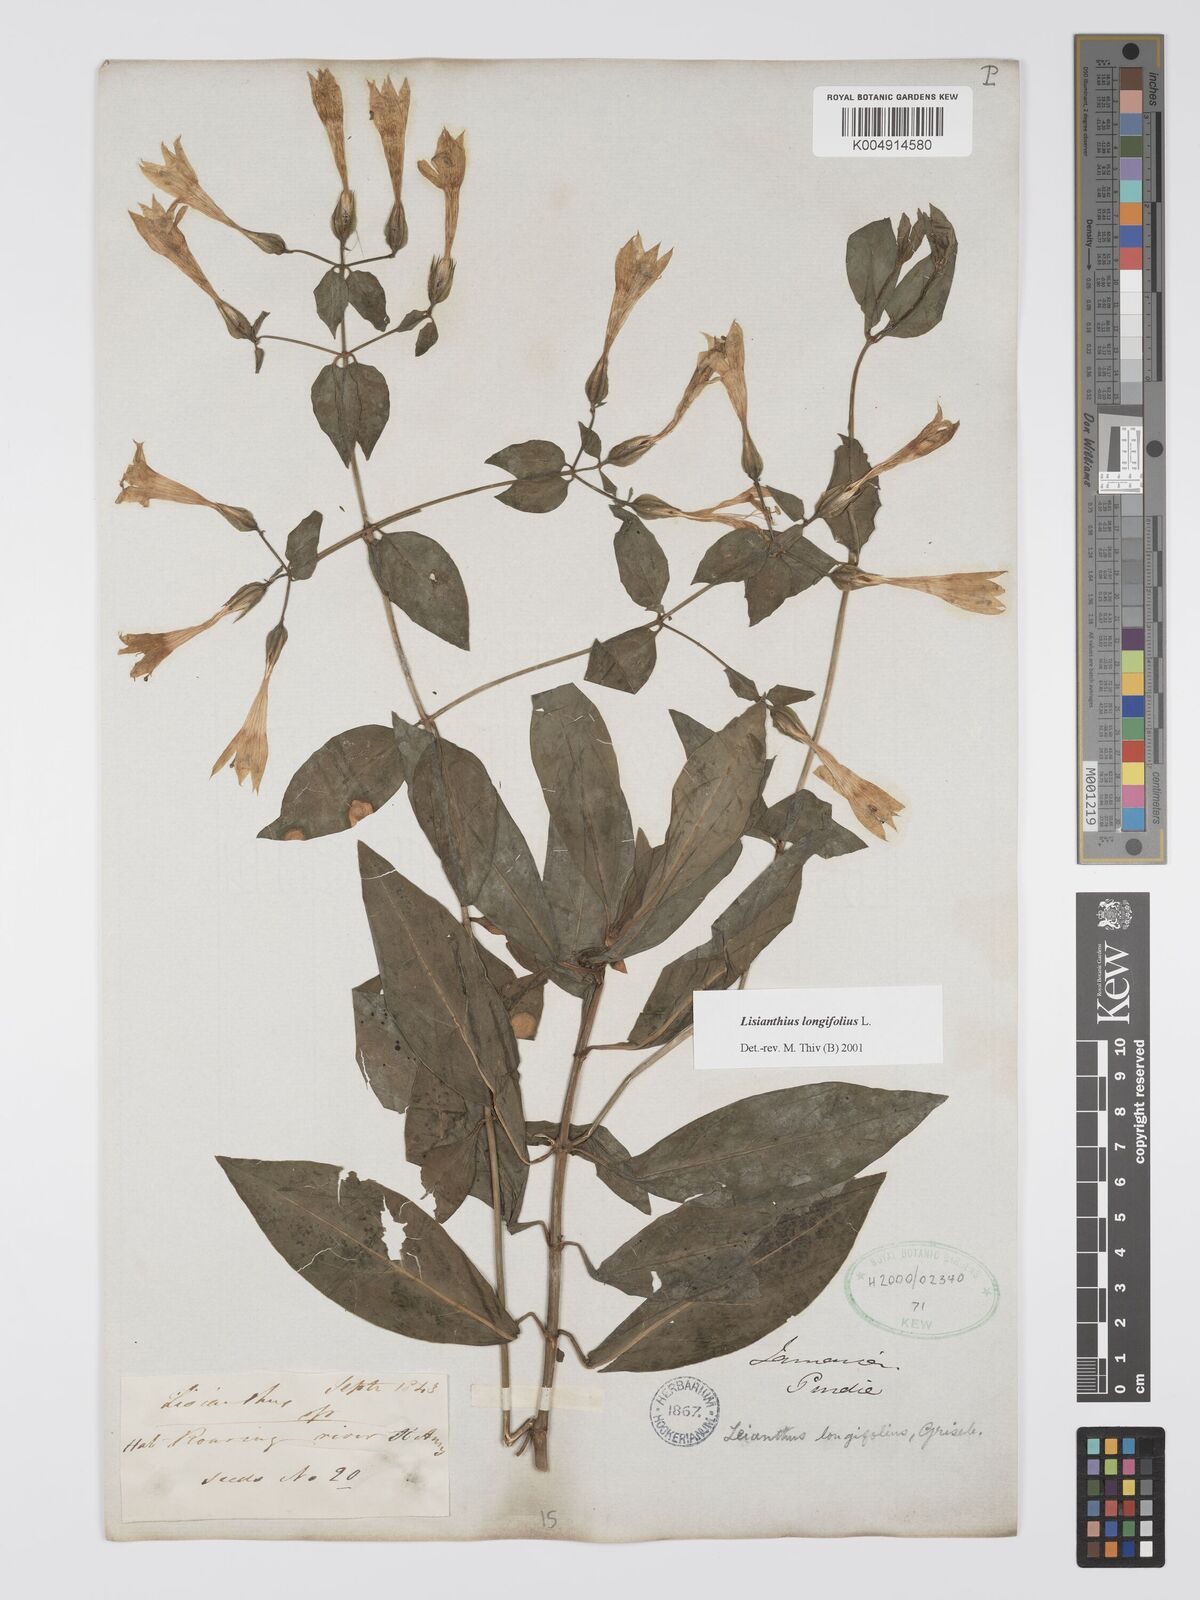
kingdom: Plantae
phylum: Tracheophyta
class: Magnoliopsida
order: Gentianales
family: Gentianaceae
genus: Lisianthus
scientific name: Lisianthus longifolius
